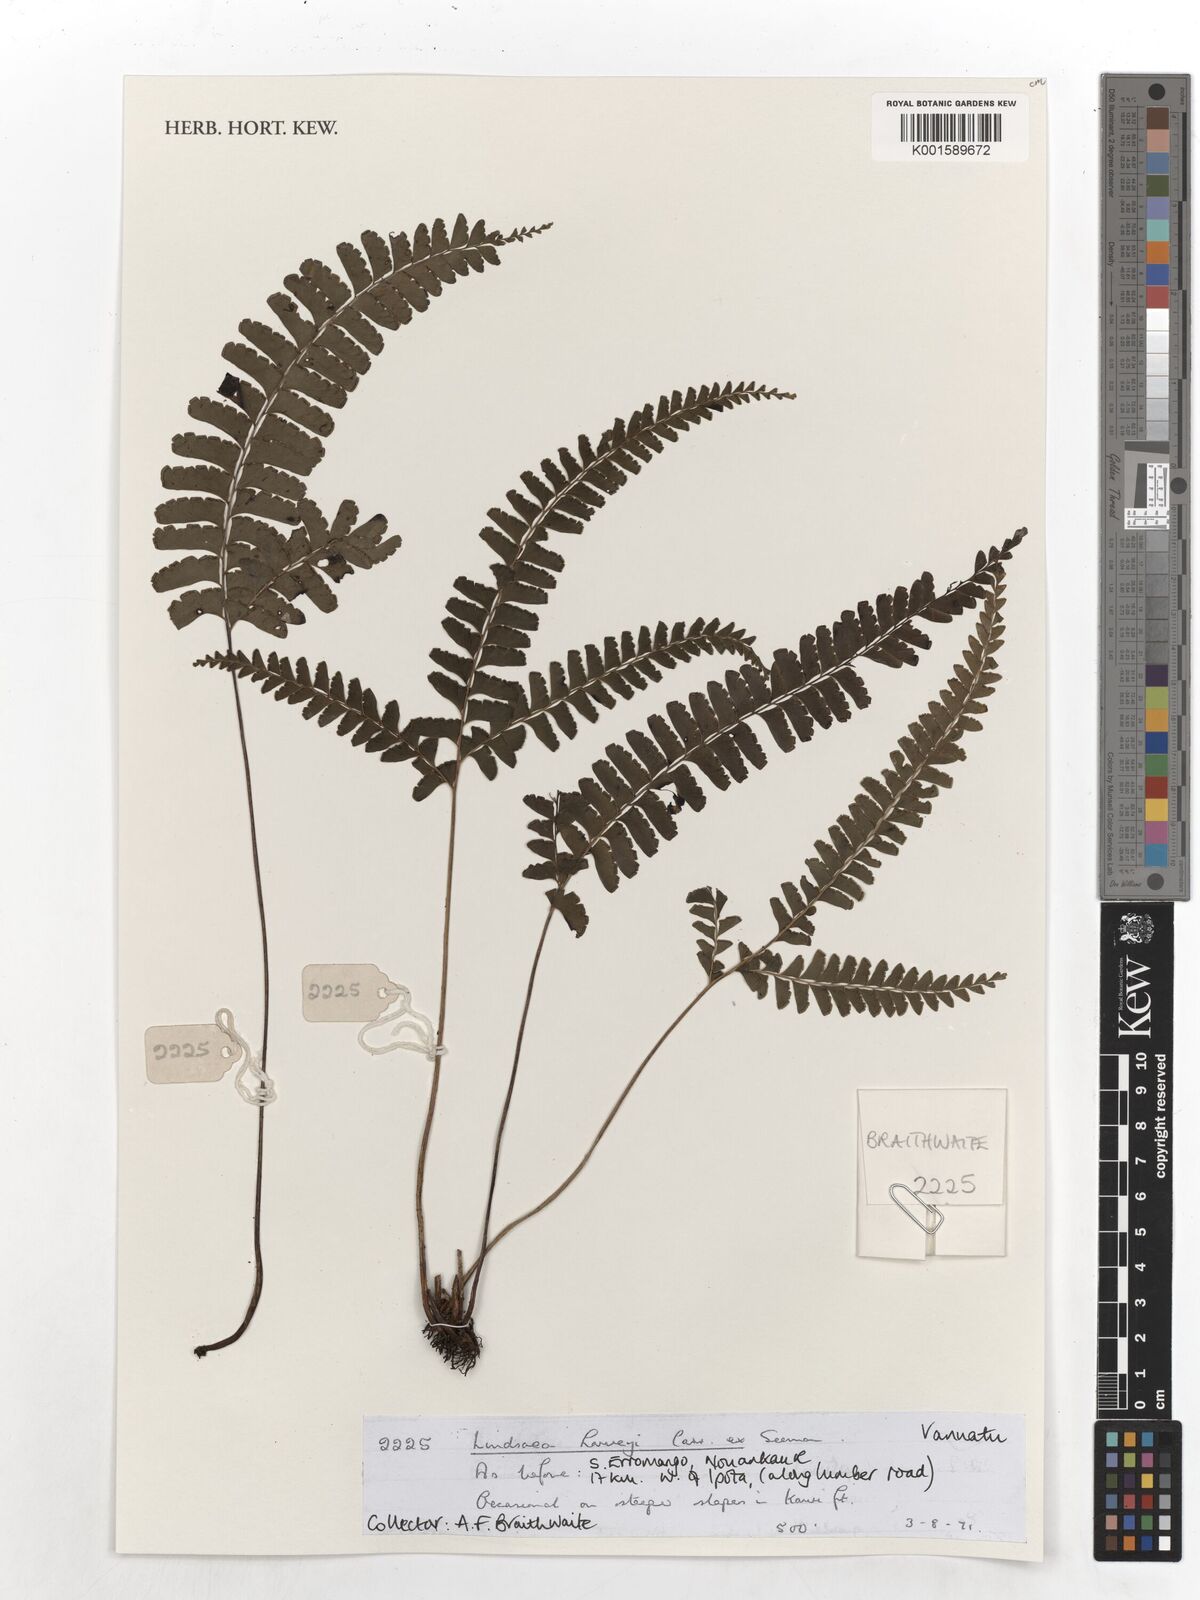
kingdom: Plantae
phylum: Tracheophyta
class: Polypodiopsida
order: Polypodiales
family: Lindsaeaceae
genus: Lindsaea
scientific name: Lindsaea harveyi
